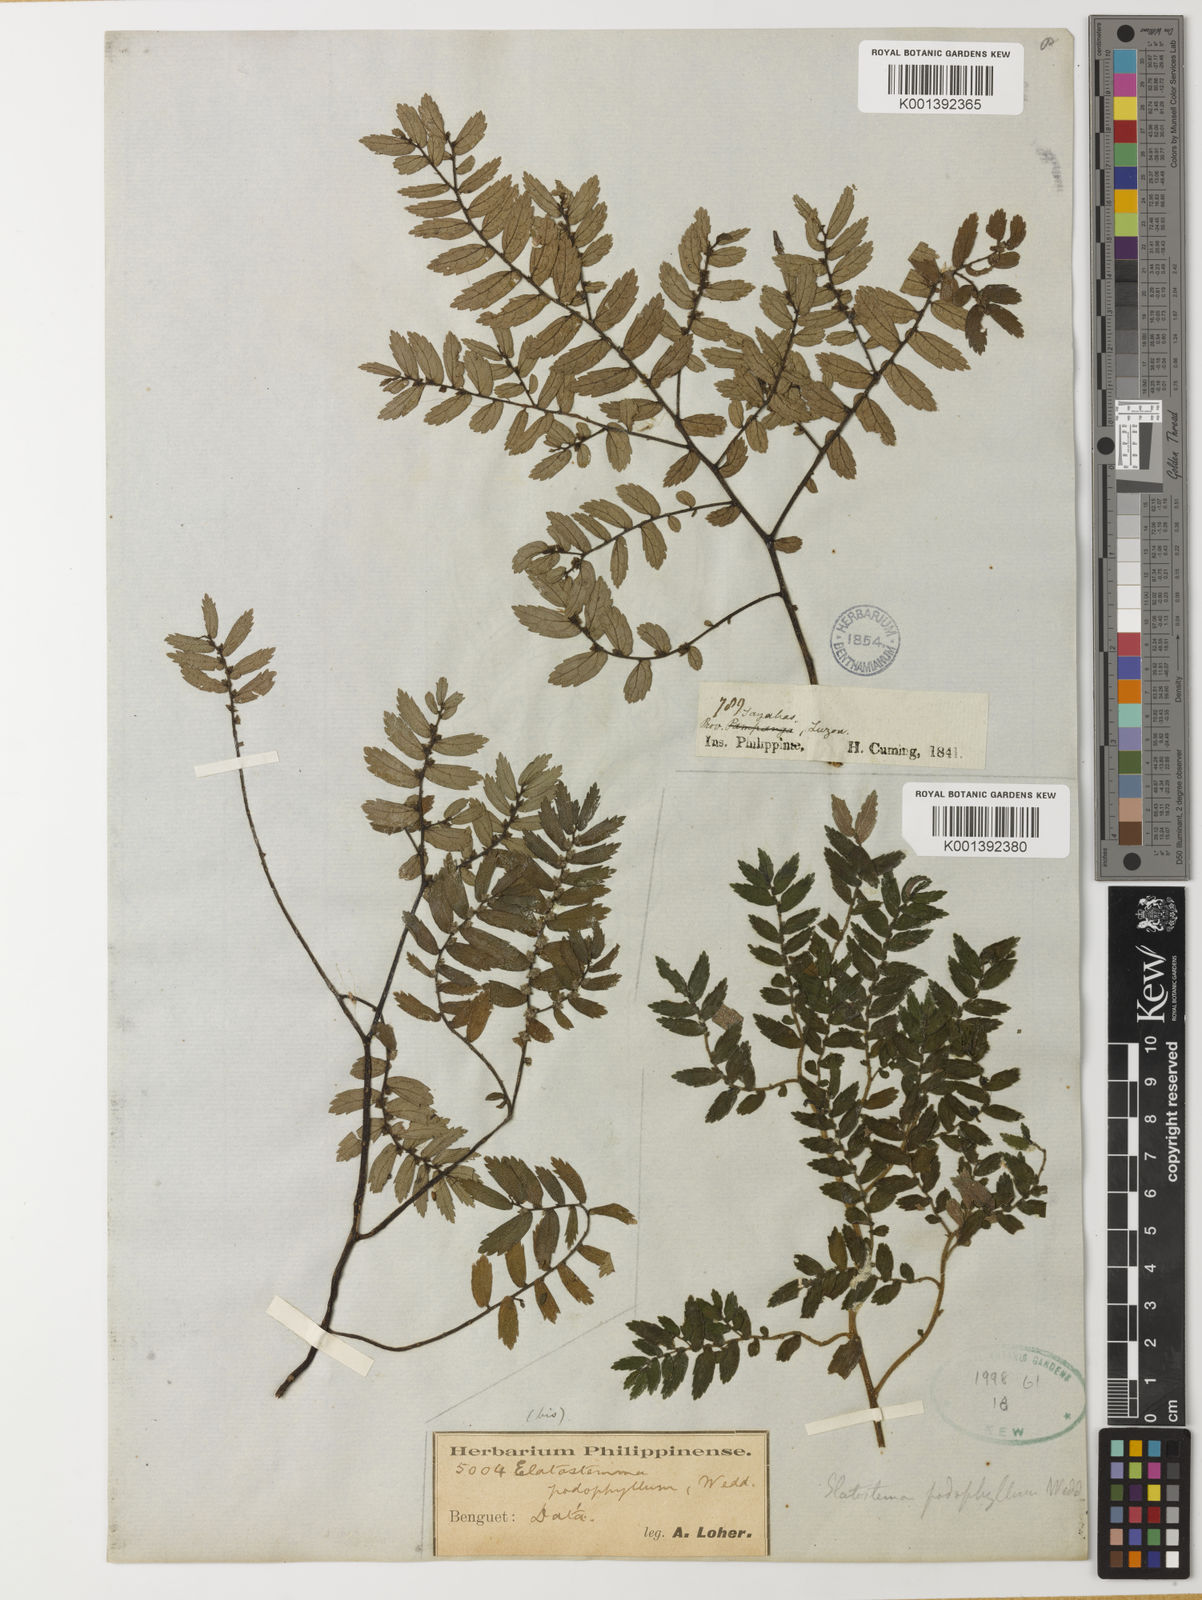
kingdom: Plantae
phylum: Tracheophyta
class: Magnoliopsida
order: Rosales
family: Urticaceae
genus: Elatostema
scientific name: Elatostema podophyllum
